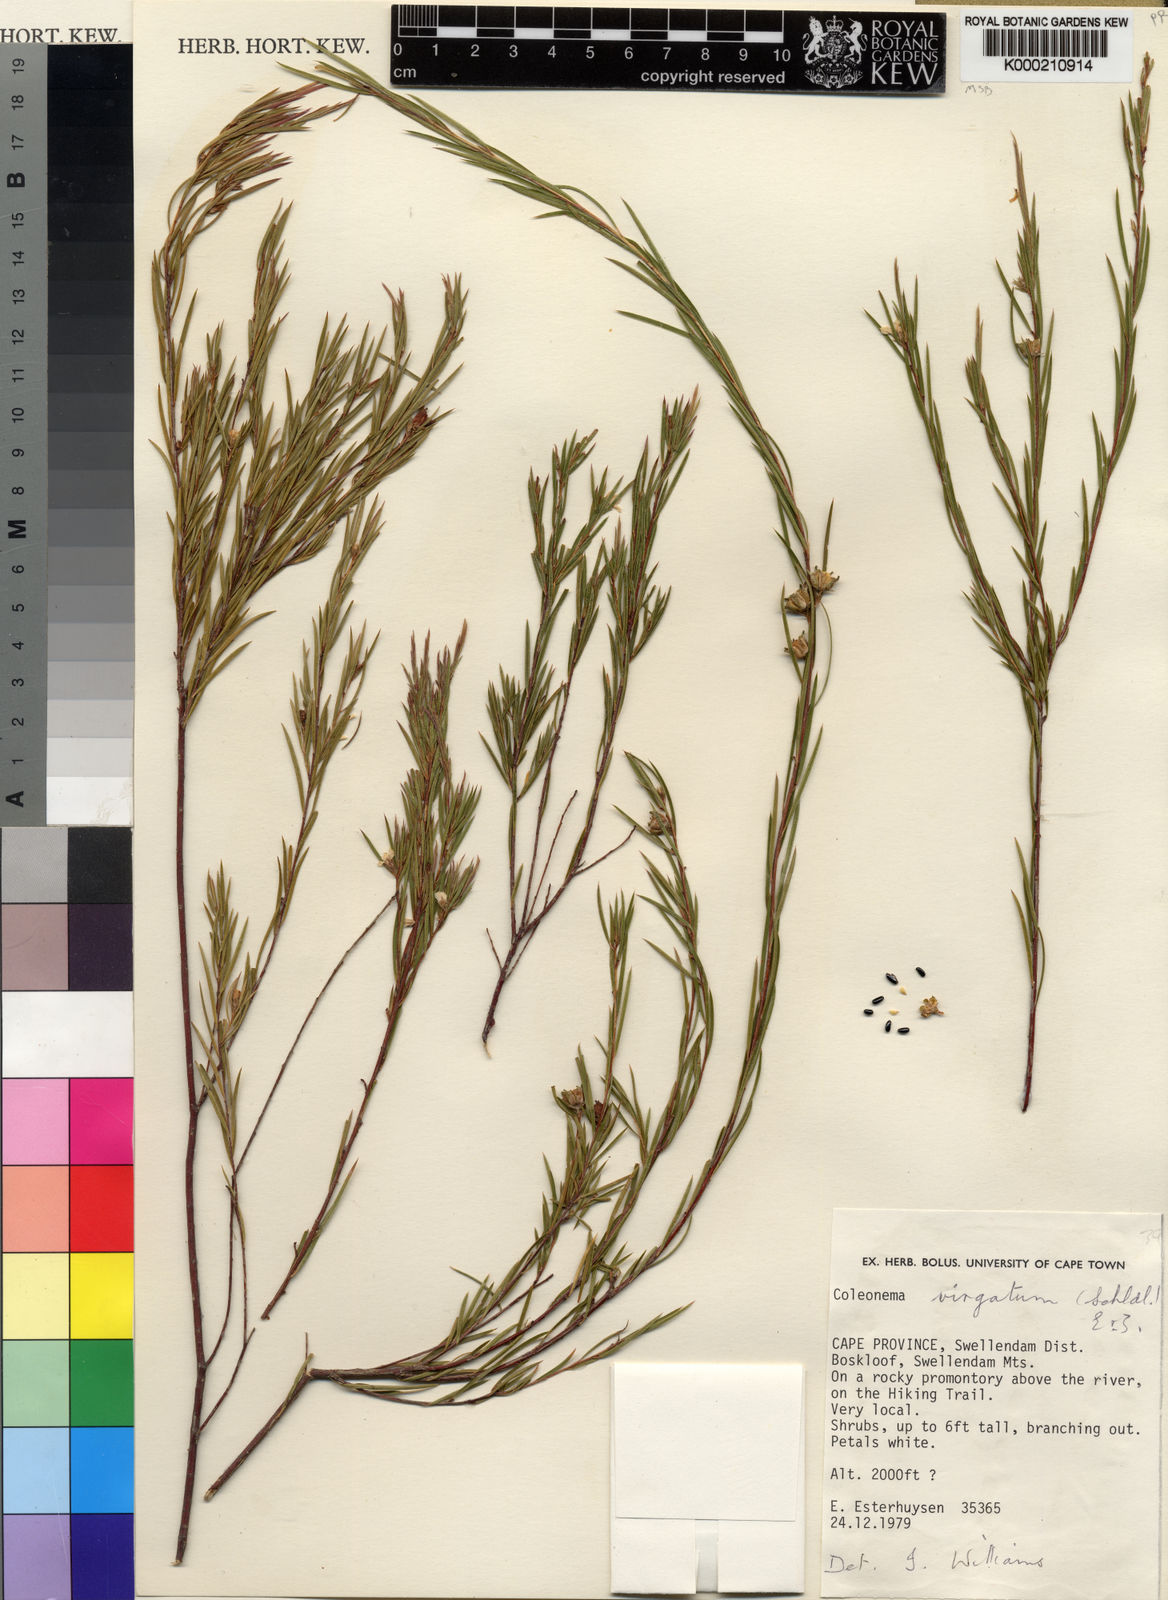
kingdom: Plantae
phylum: Tracheophyta
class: Magnoliopsida
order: Sapindales
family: Rutaceae
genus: Coleonema
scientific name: Coleonema virgatum
